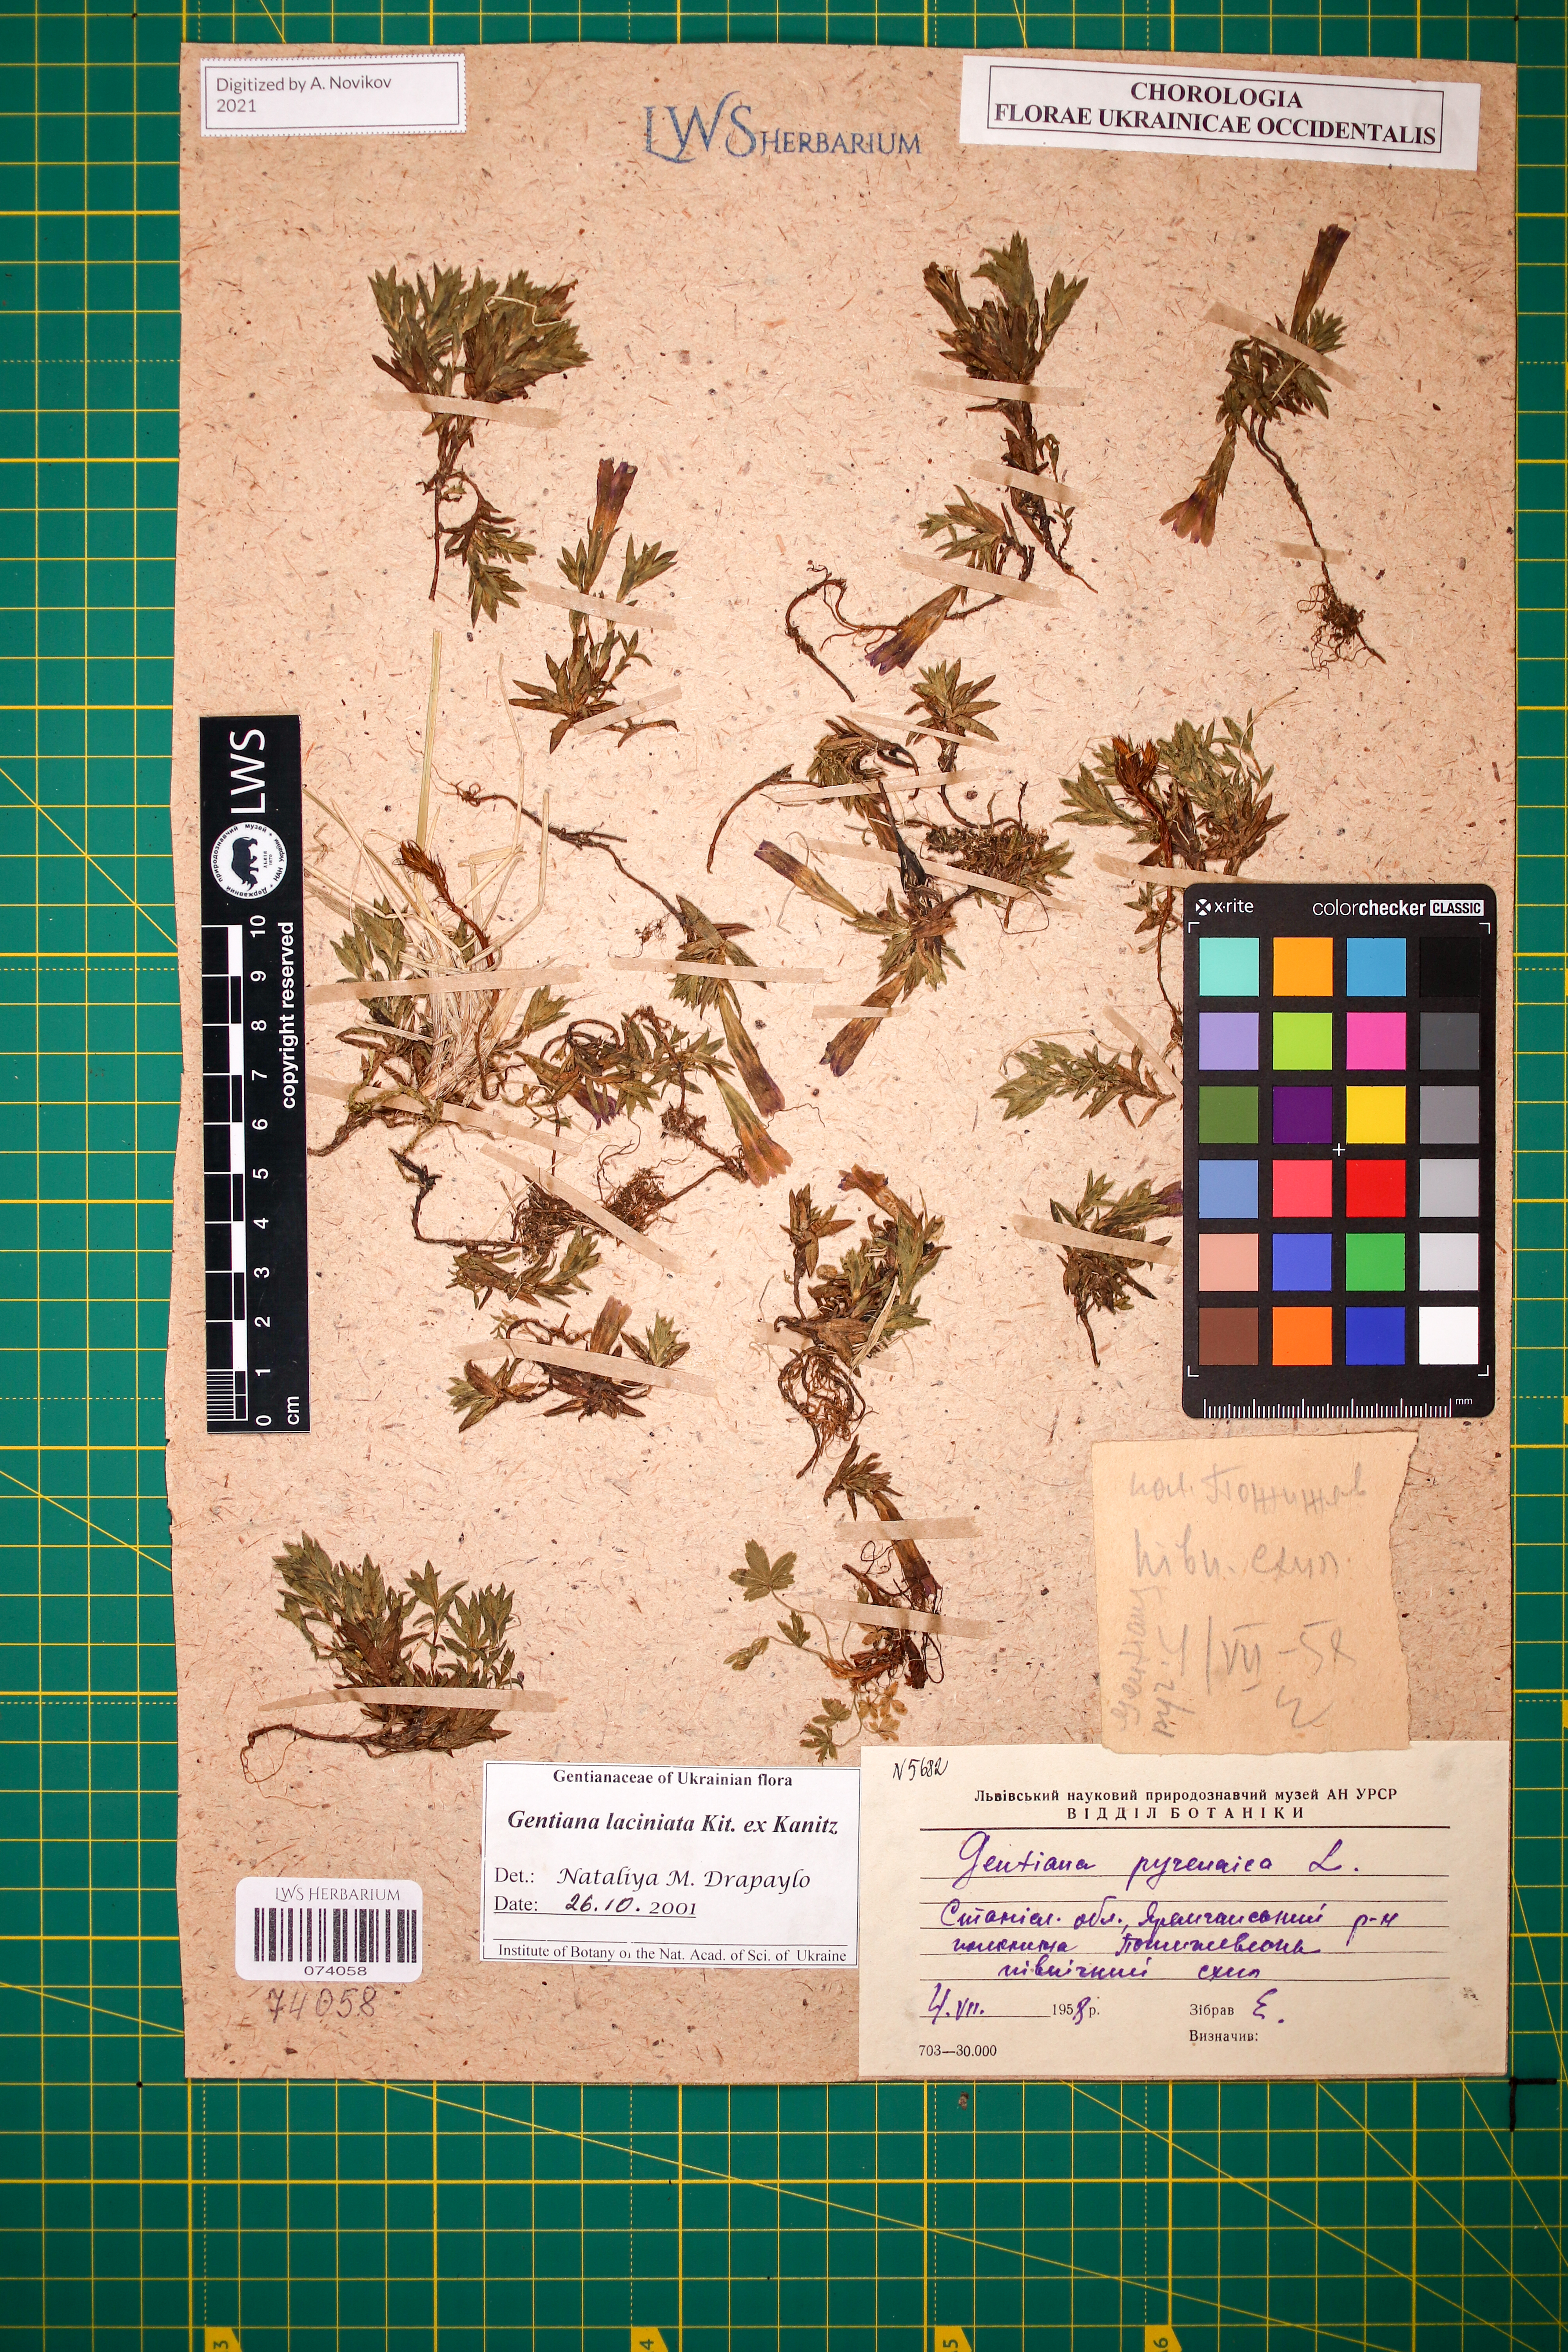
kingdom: Plantae
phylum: Tracheophyta
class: Magnoliopsida
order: Gentianales
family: Gentianaceae
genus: Gentiana
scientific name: Gentiana laciniata
